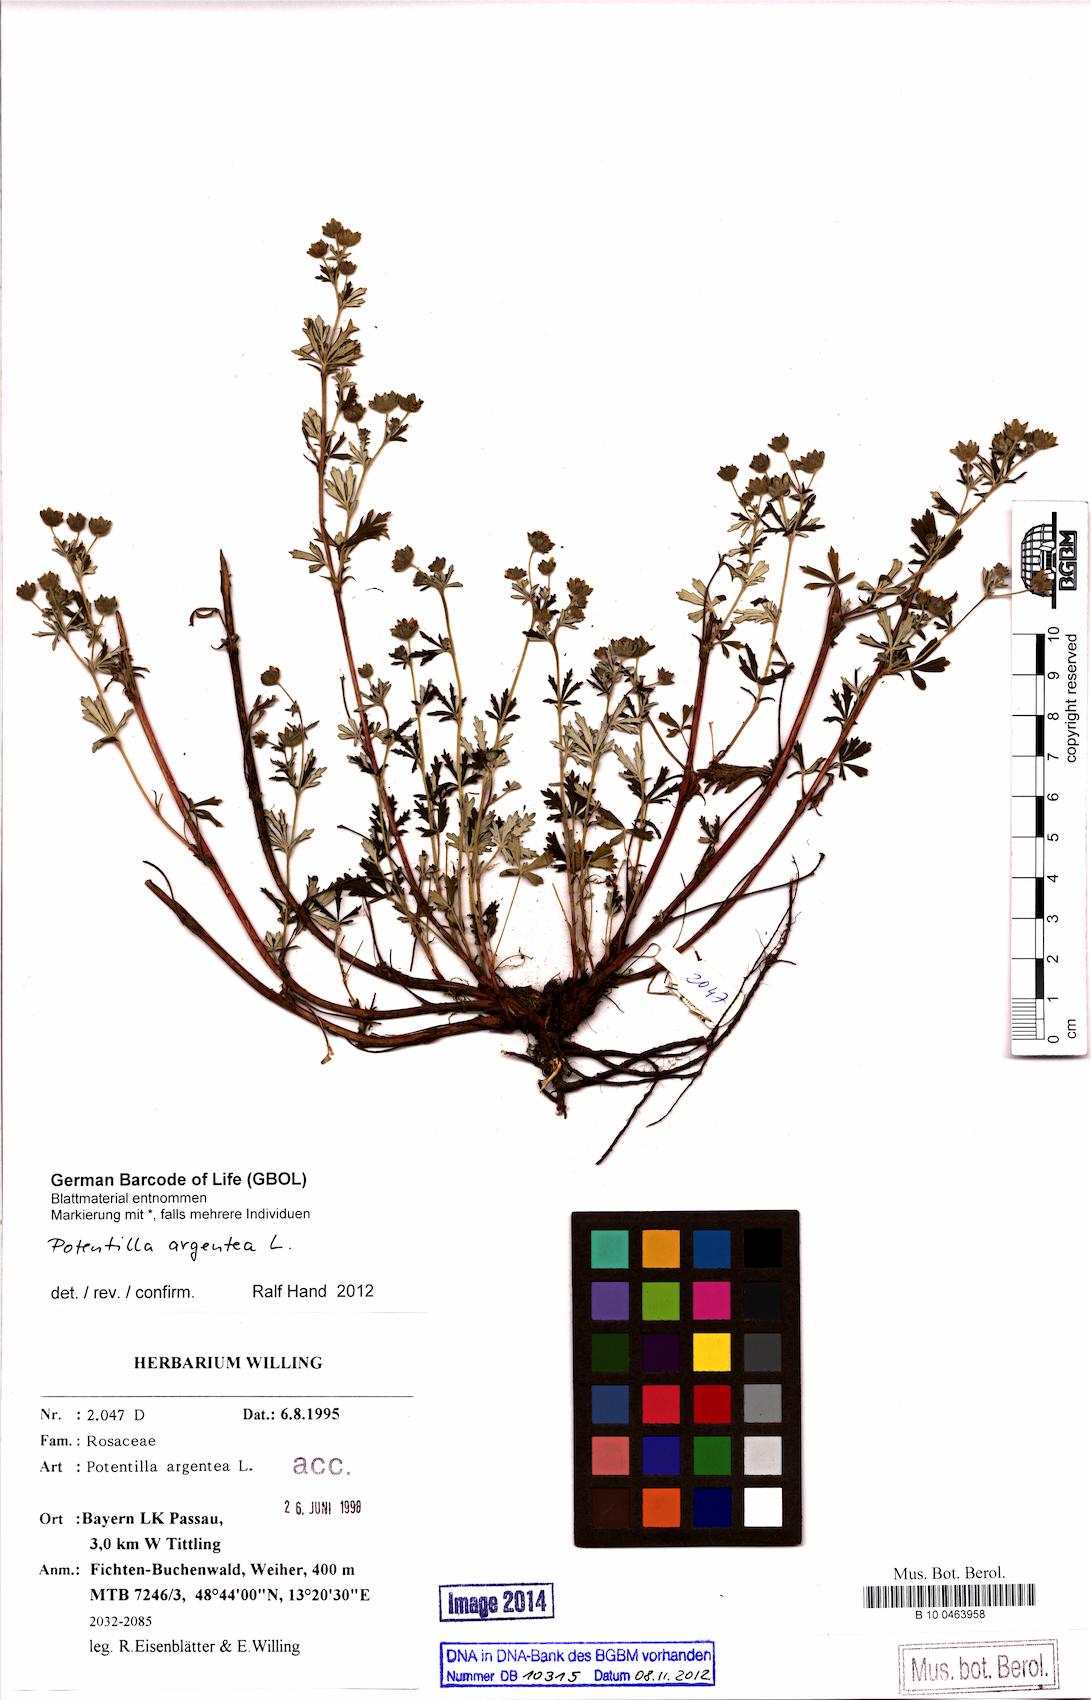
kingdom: Plantae
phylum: Tracheophyta
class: Magnoliopsida
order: Rosales
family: Rosaceae
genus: Potentilla
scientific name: Potentilla argentea
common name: Hoary cinquefoil
